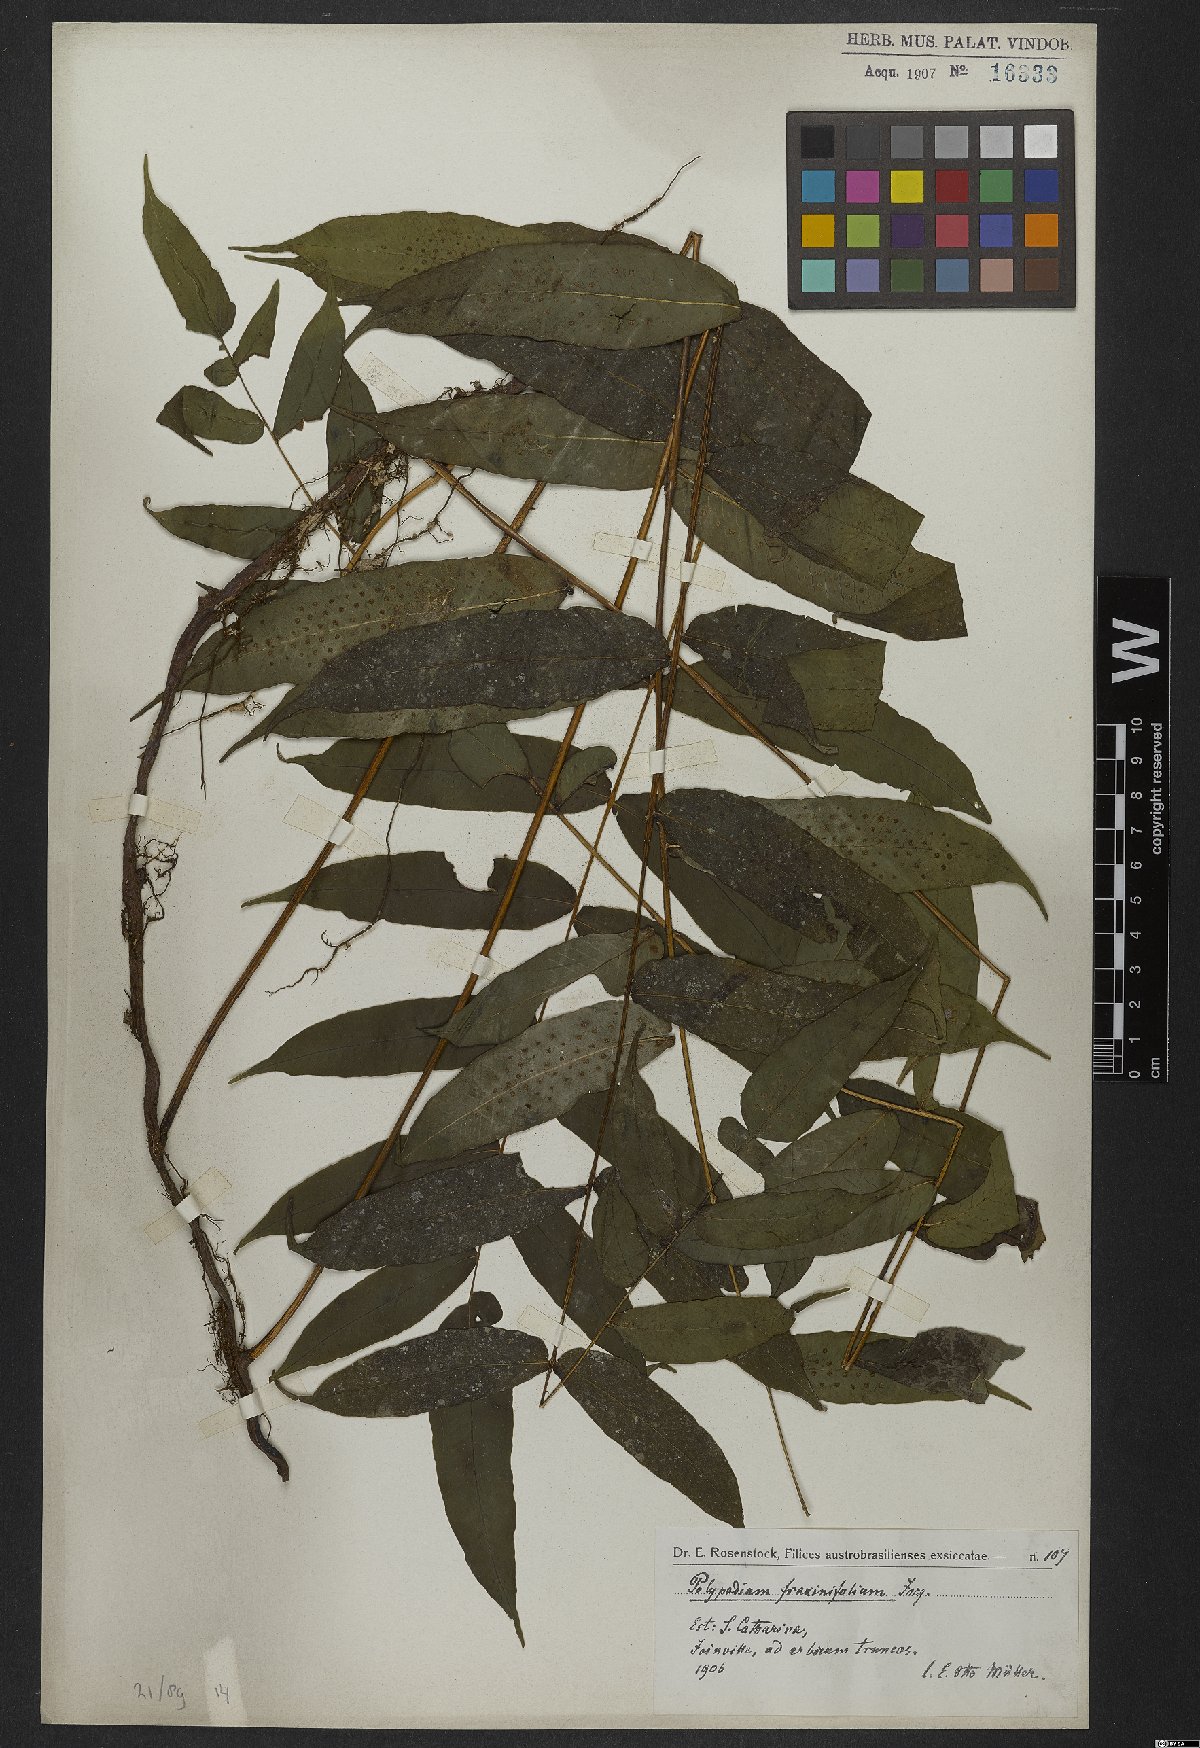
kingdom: Plantae
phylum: Tracheophyta
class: Polypodiopsida
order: Polypodiales
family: Polypodiaceae
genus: Serpocaulon
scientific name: Serpocaulon fraxinifolium
